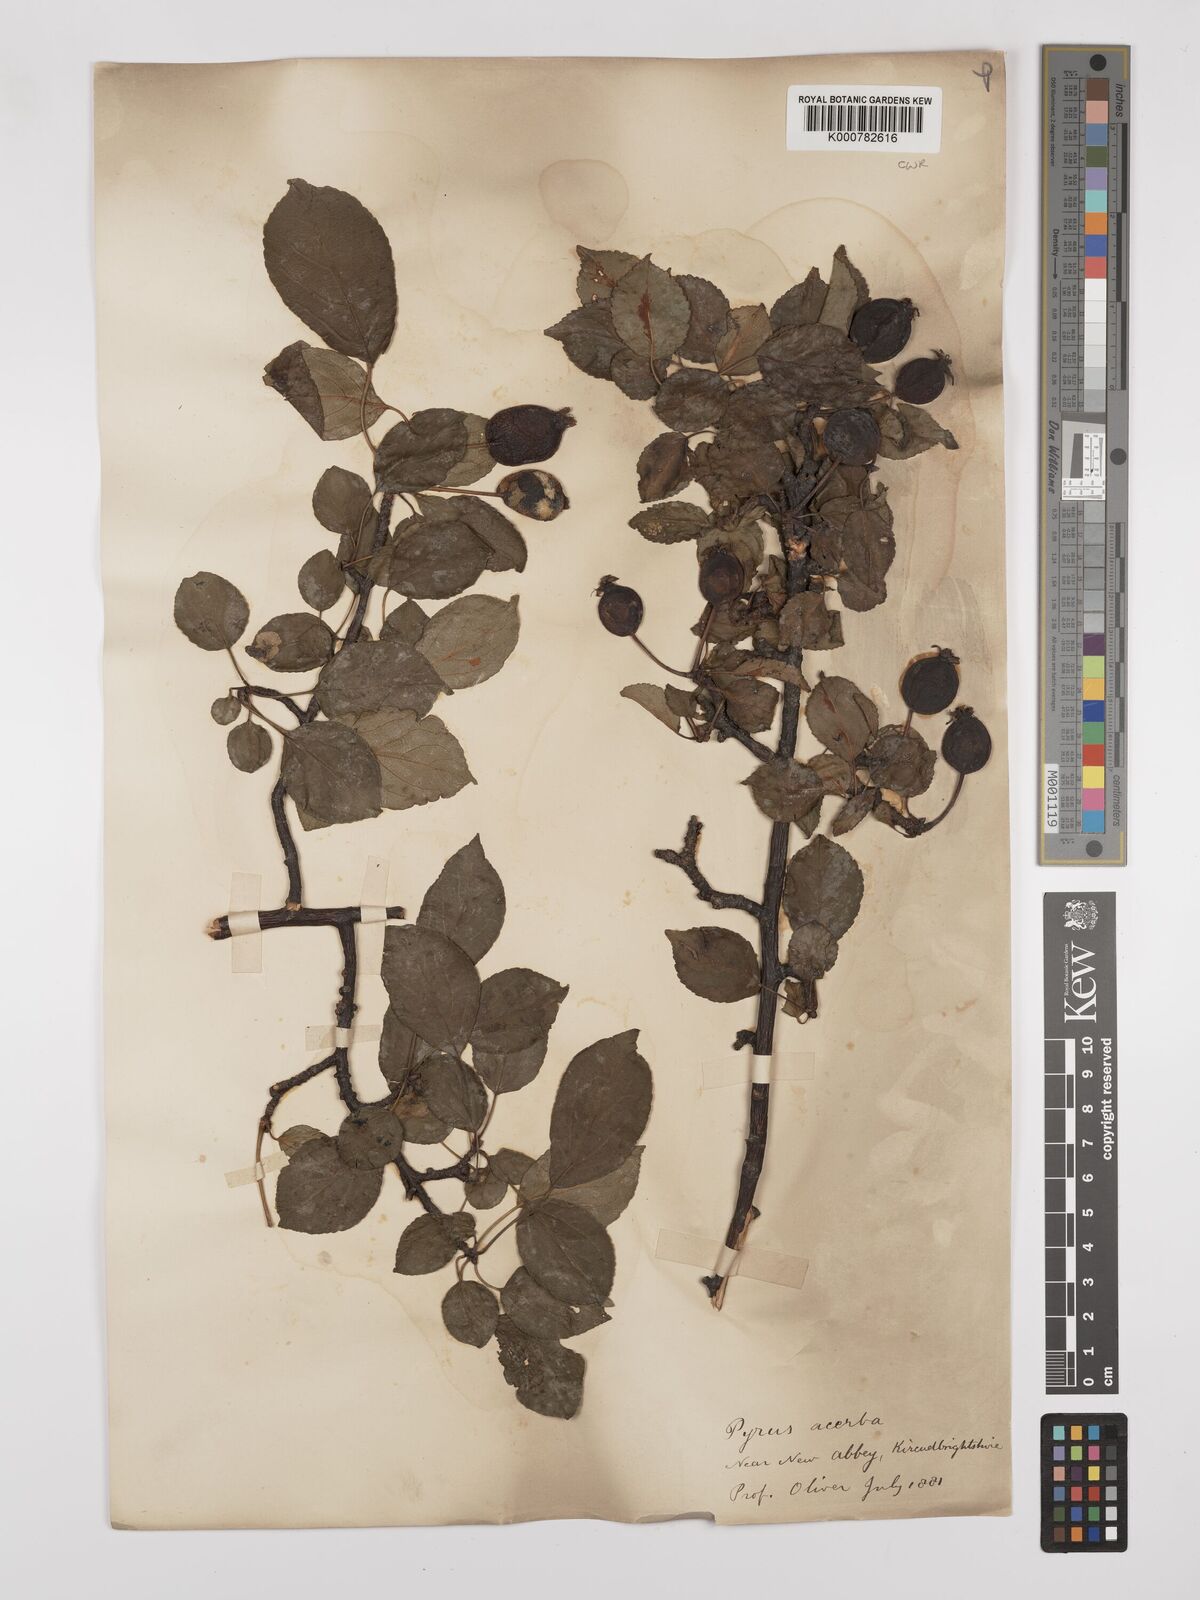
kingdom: Plantae
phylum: Tracheophyta
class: Magnoliopsida
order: Rosales
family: Rosaceae
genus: Pyrus
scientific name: Pyrus
